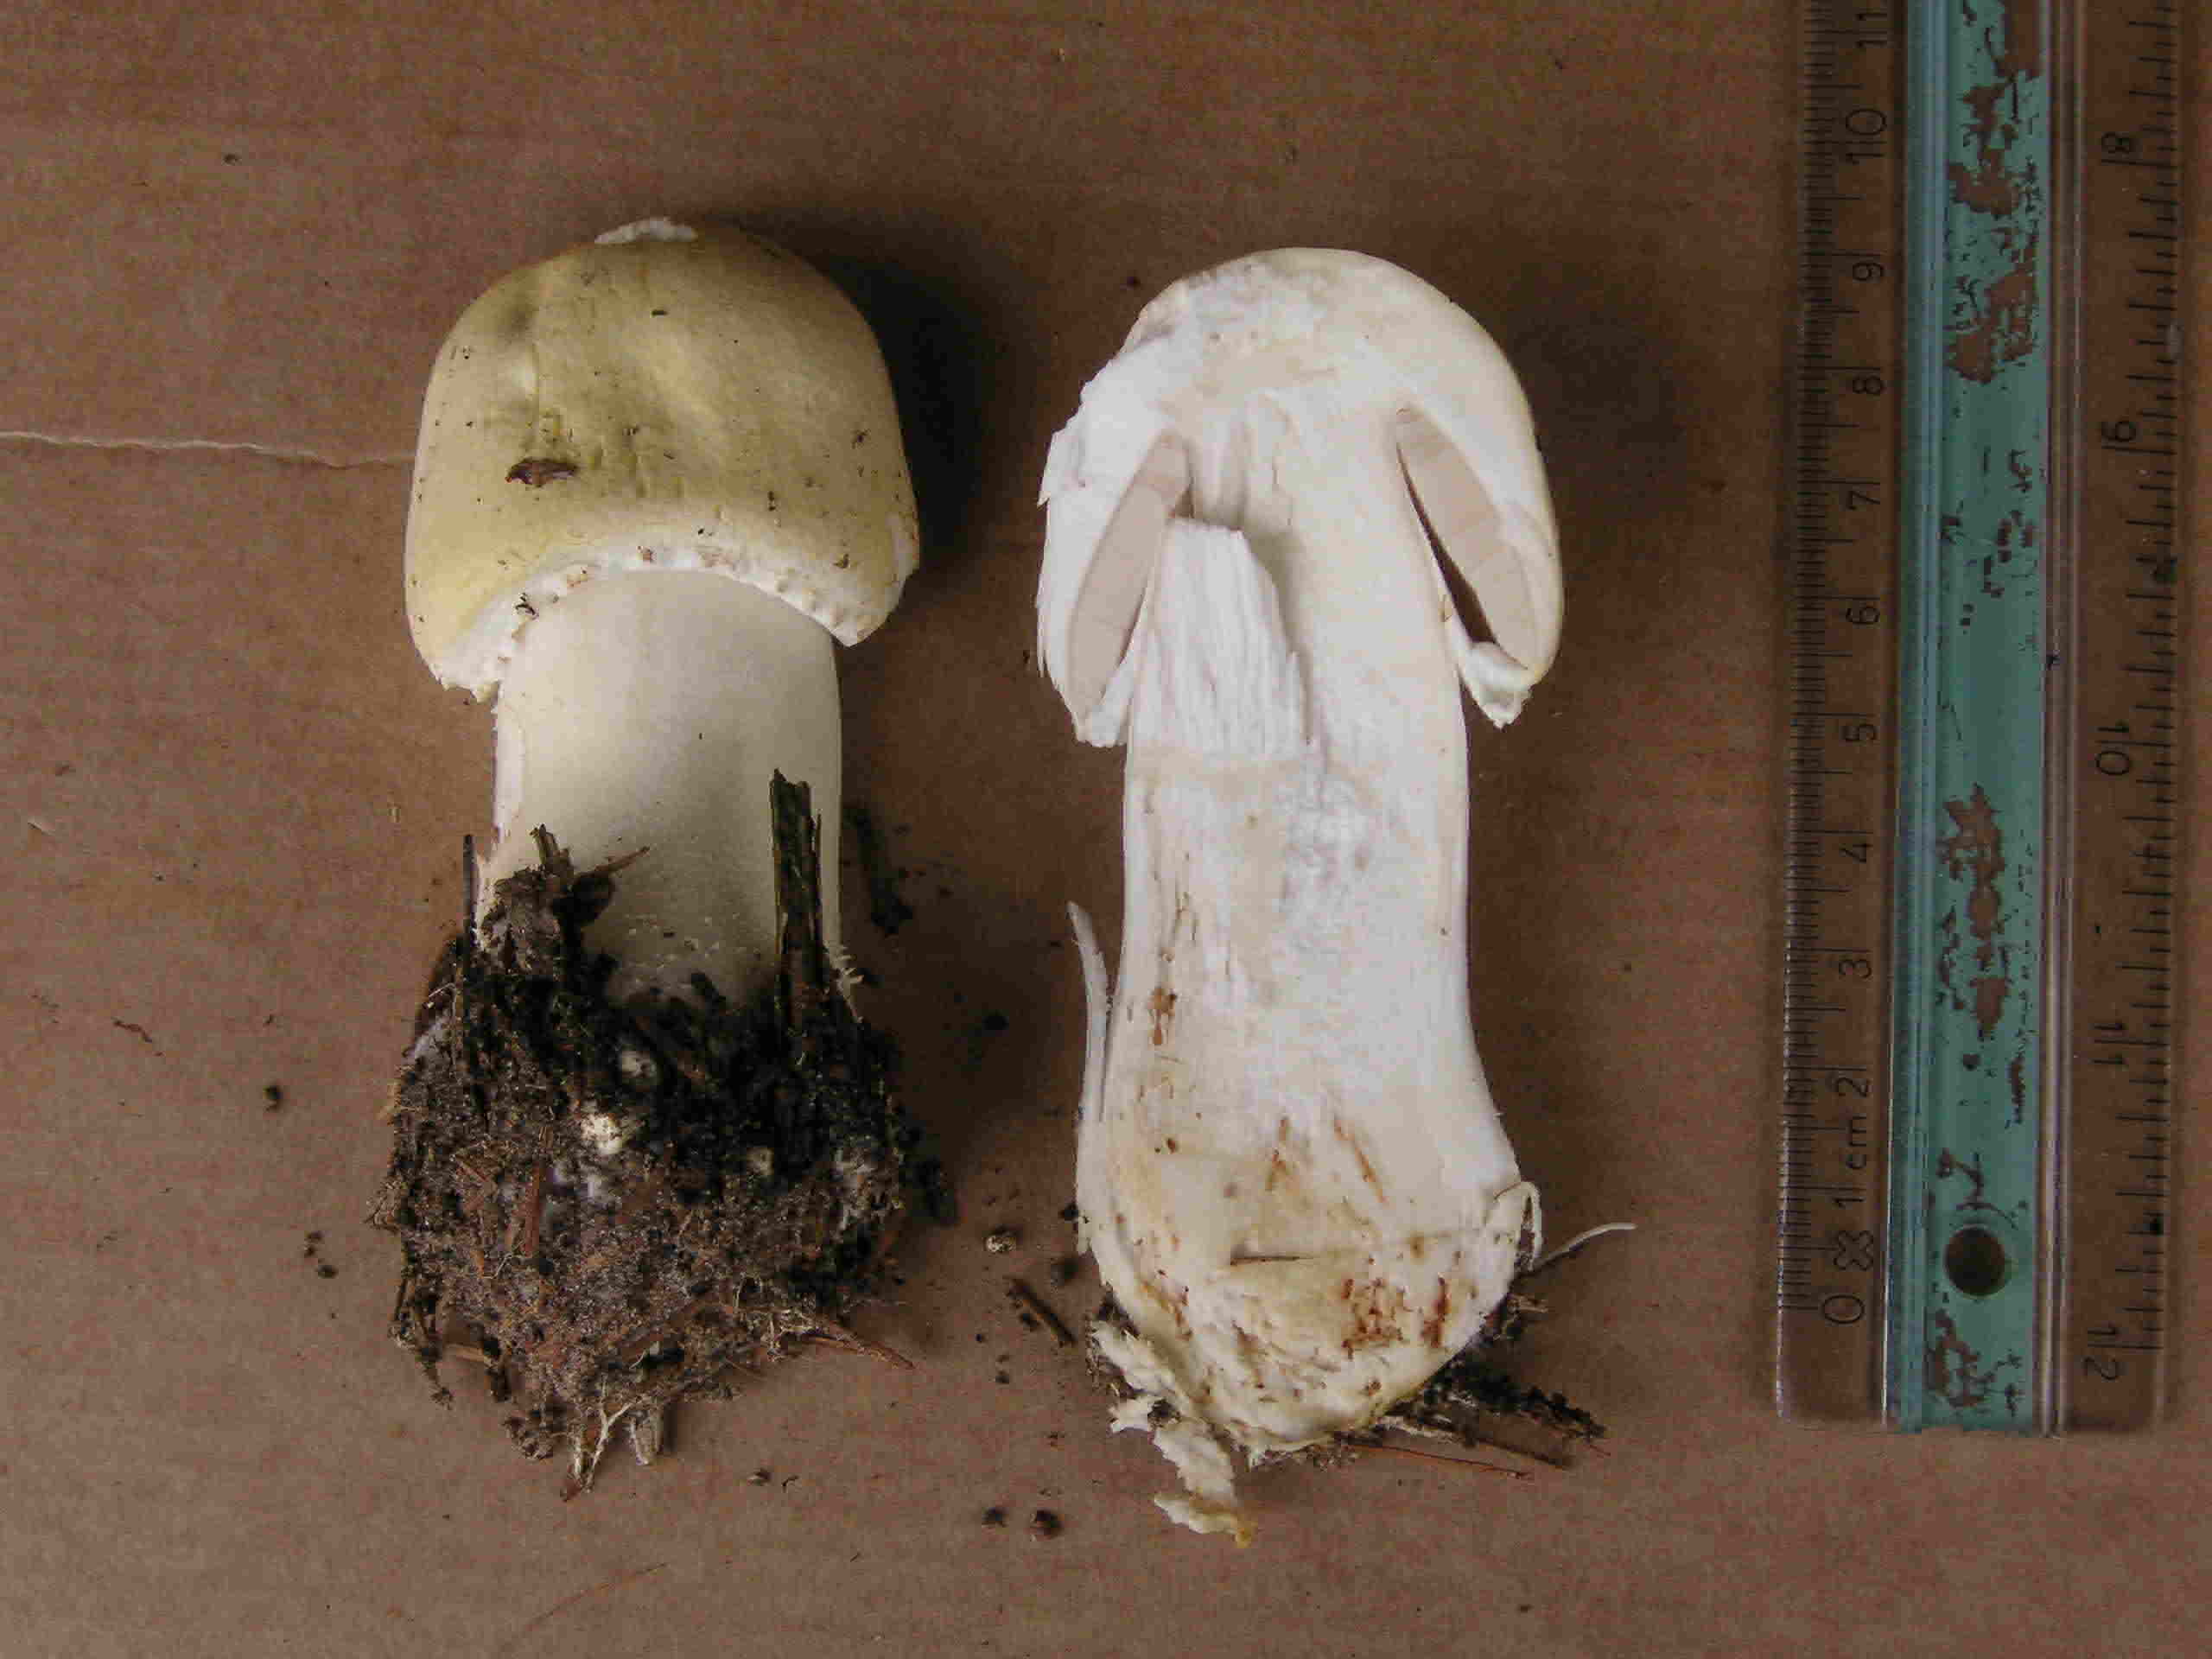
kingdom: Fungi
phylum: Basidiomycota
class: Agaricomycetes
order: Agaricales
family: Agaricaceae
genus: Agaricus
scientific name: Agaricus arvensis
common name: ager-champignon
